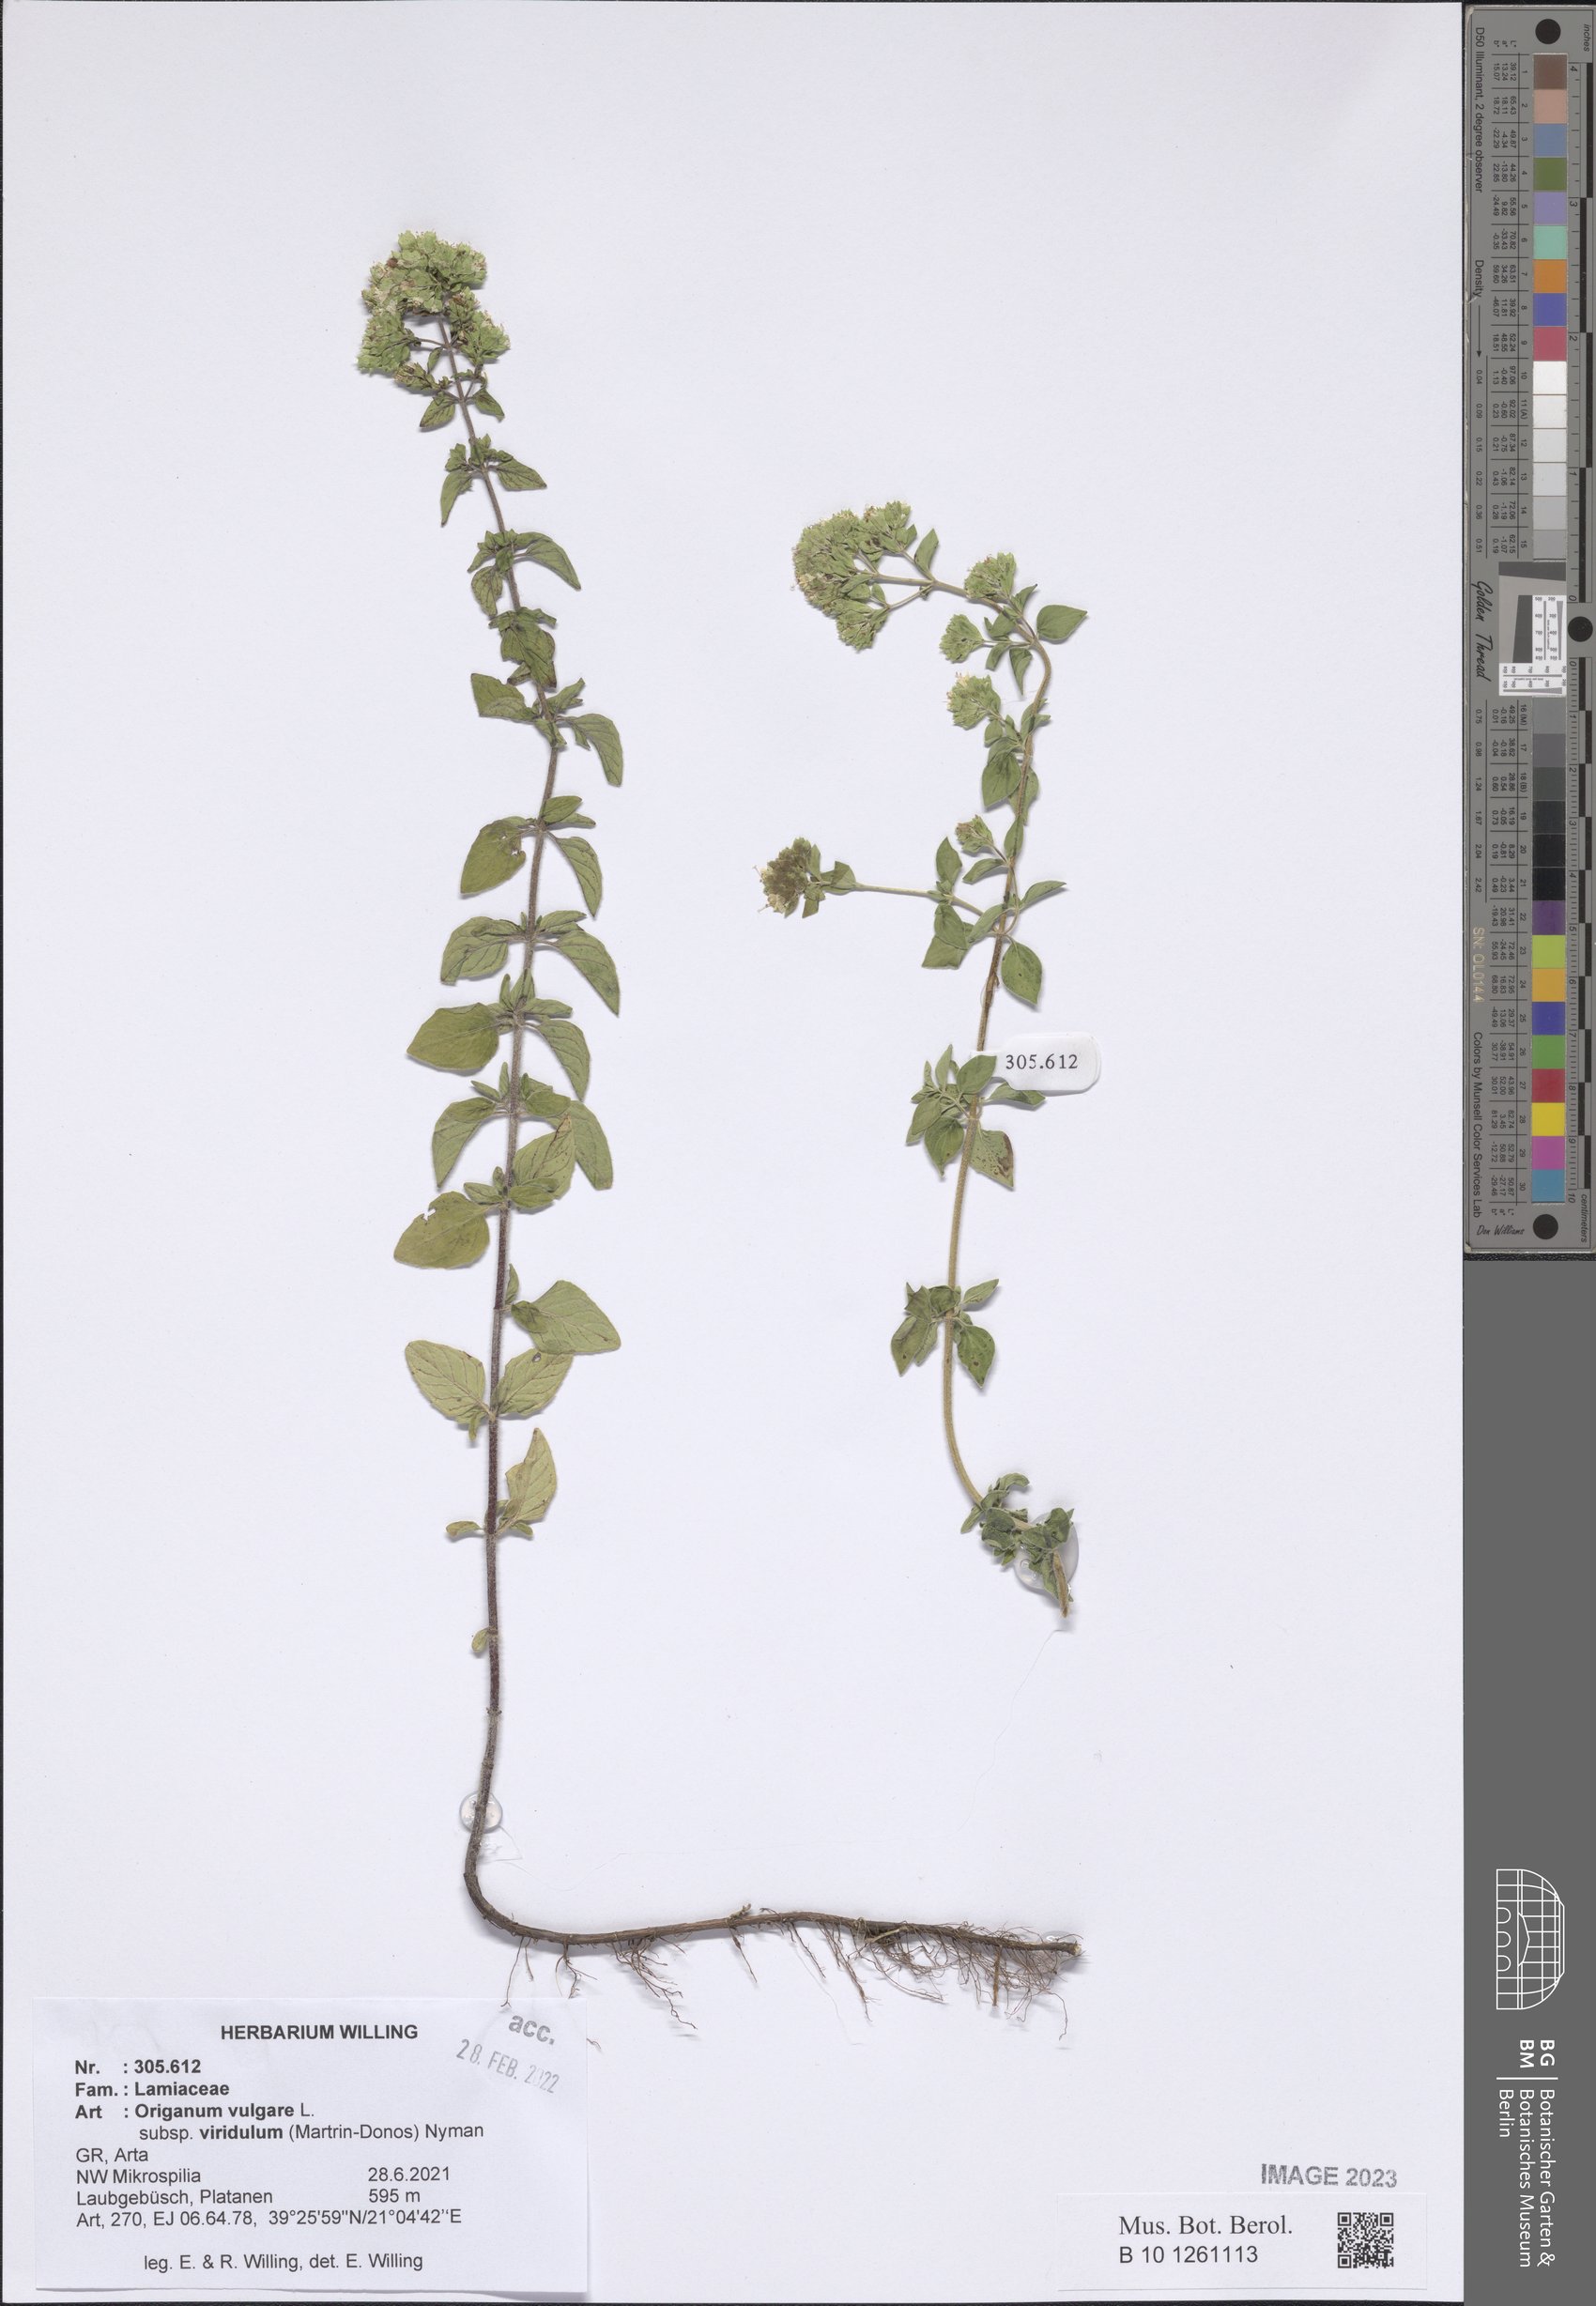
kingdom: Plantae
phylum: Tracheophyta
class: Magnoliopsida
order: Lamiales
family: Lamiaceae
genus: Origanum
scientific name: Origanum vulgare
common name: Wild marjoram
